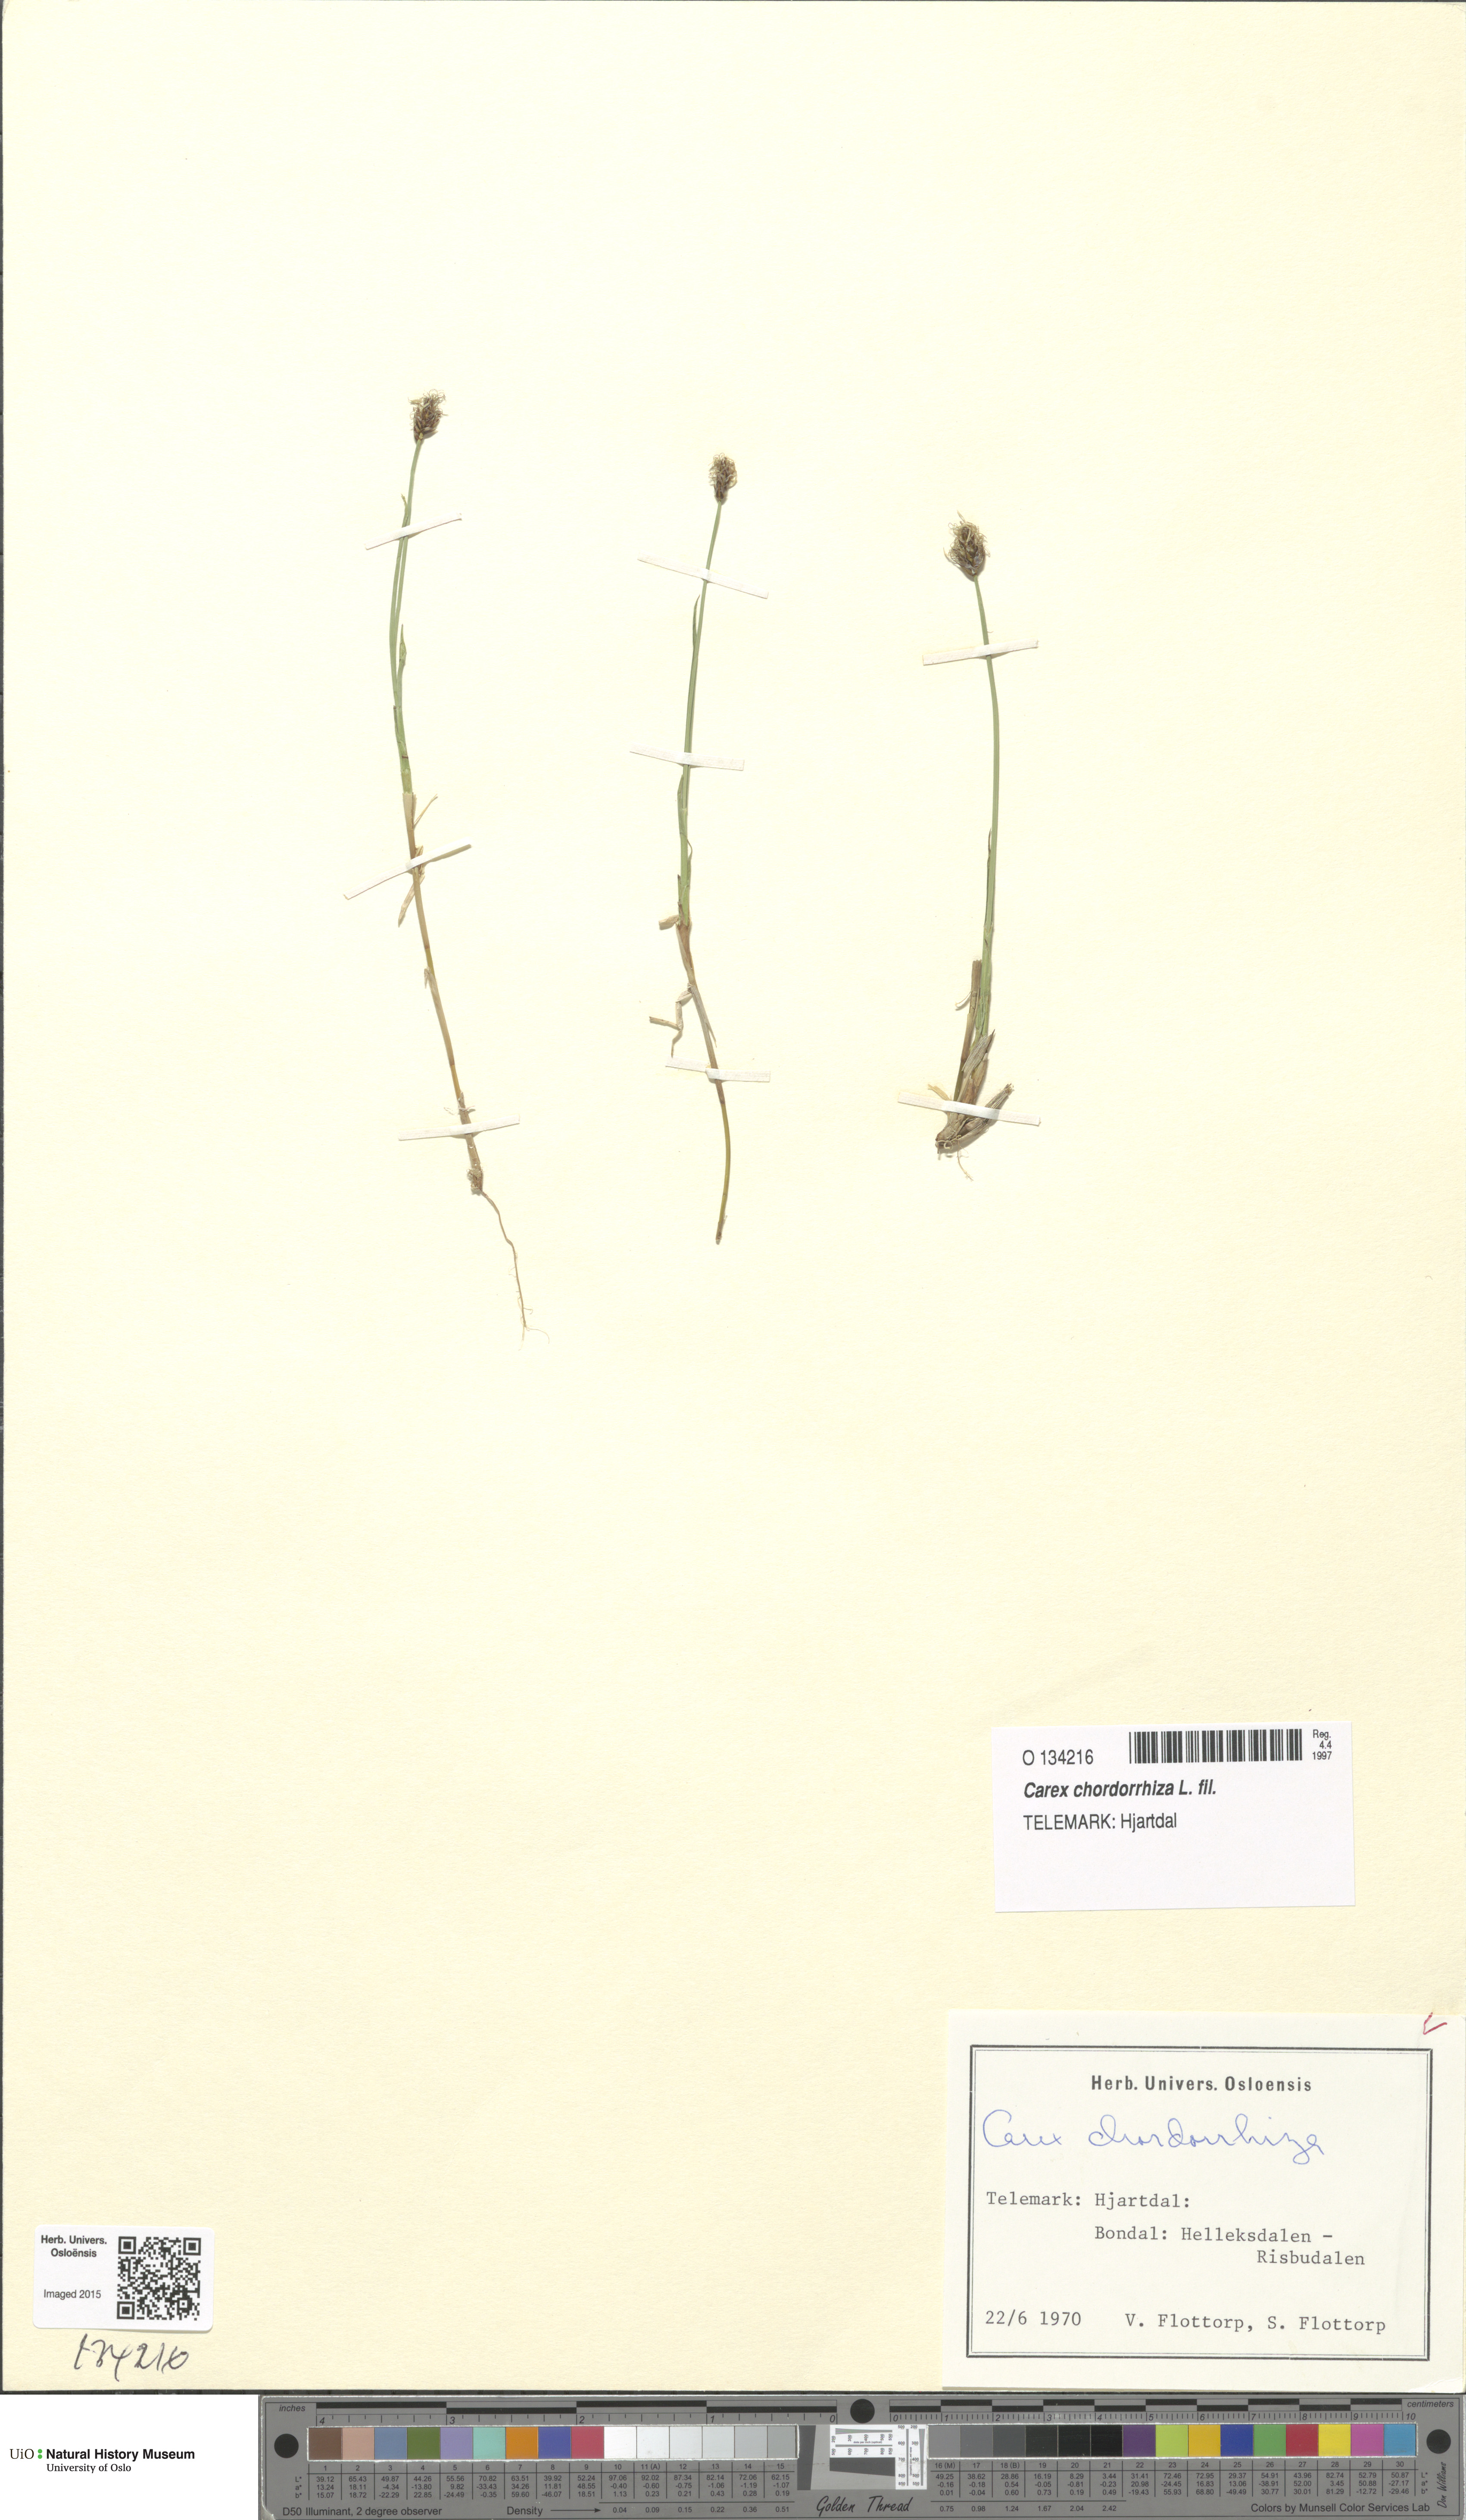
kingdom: Plantae
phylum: Tracheophyta
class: Liliopsida
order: Poales
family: Cyperaceae
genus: Carex
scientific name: Carex chordorrhiza
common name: String sedge
